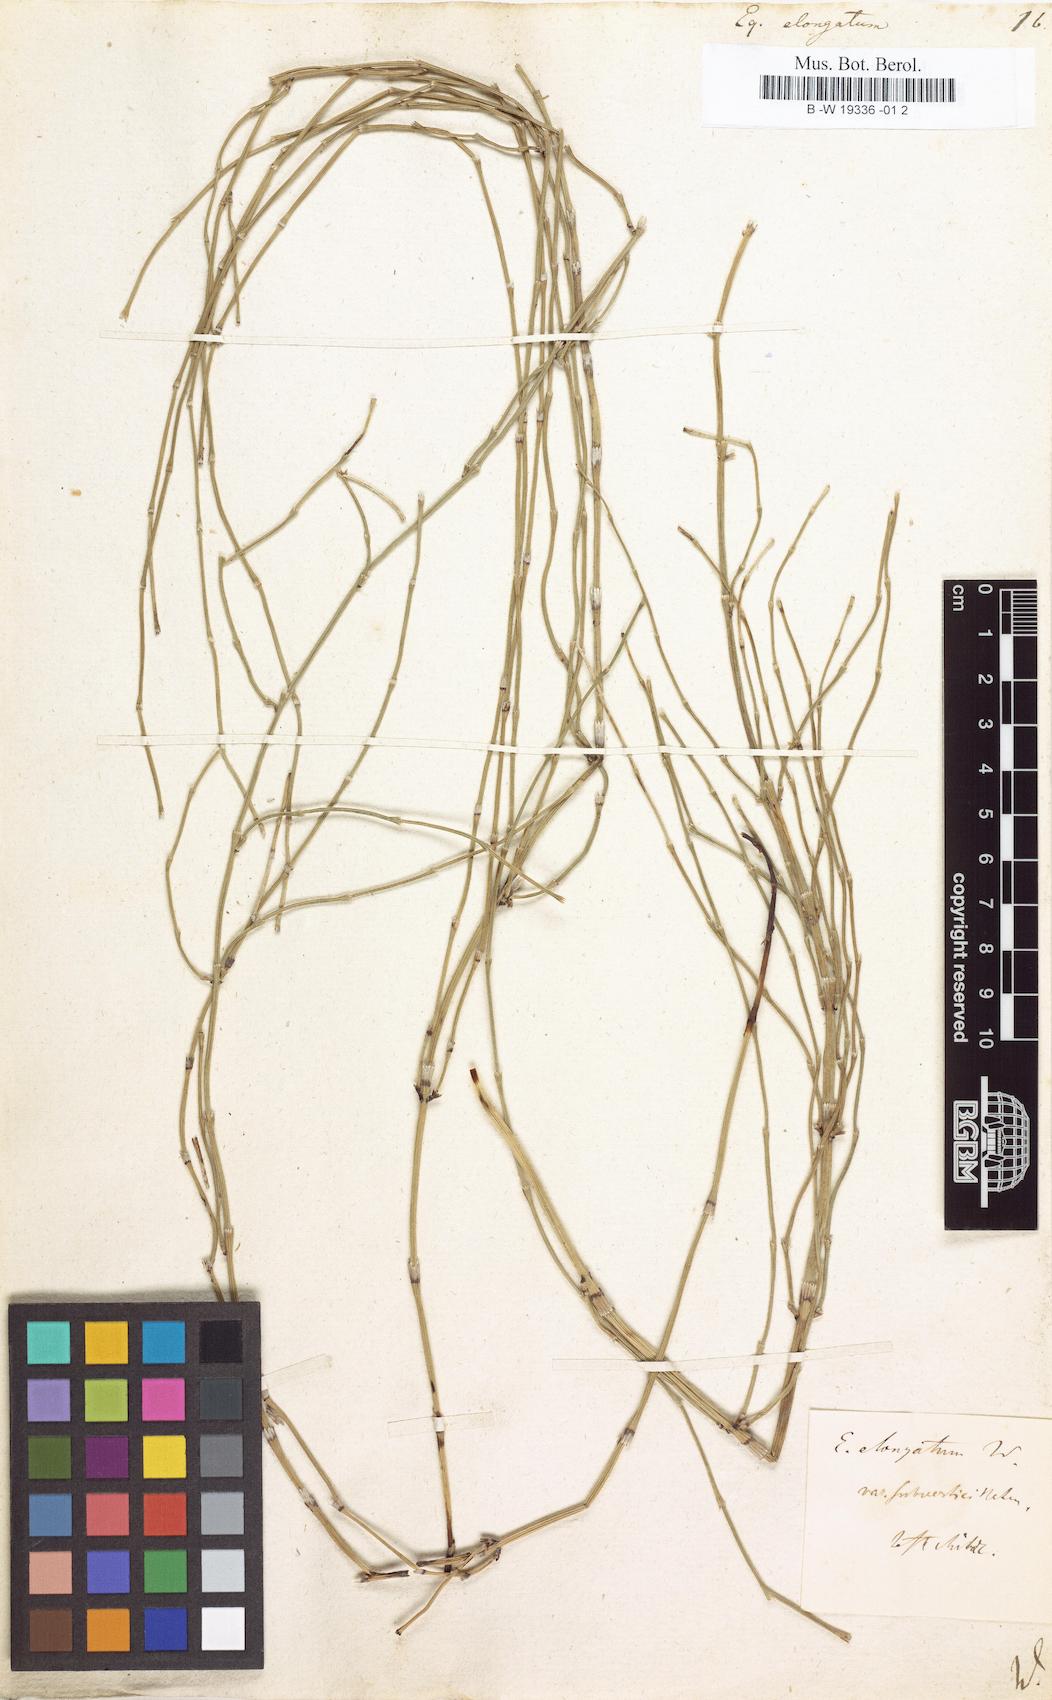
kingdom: Plantae
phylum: Tracheophyta
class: Polypodiopsida
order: Equisetales
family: Equisetaceae
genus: Equisetum
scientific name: Equisetum ramosissimum
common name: Branched horsetail
